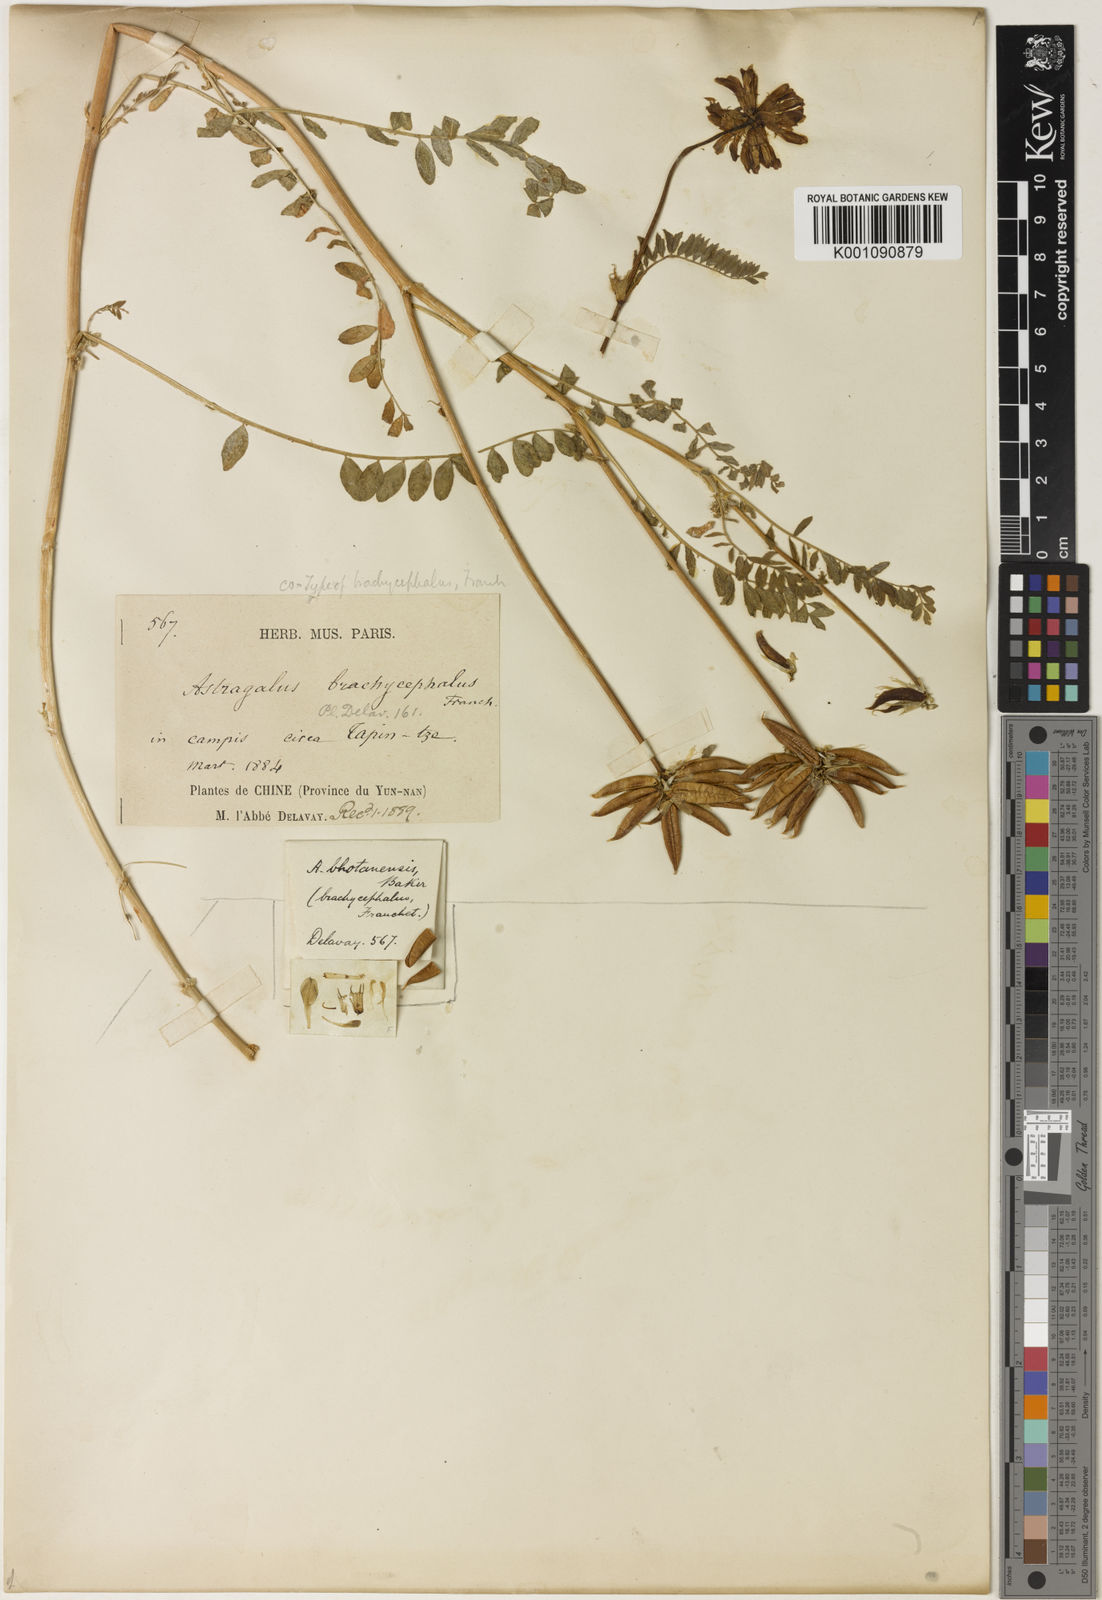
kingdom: Plantae
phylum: Tracheophyta
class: Magnoliopsida
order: Fabales
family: Fabaceae
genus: Astragalus
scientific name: Astragalus
